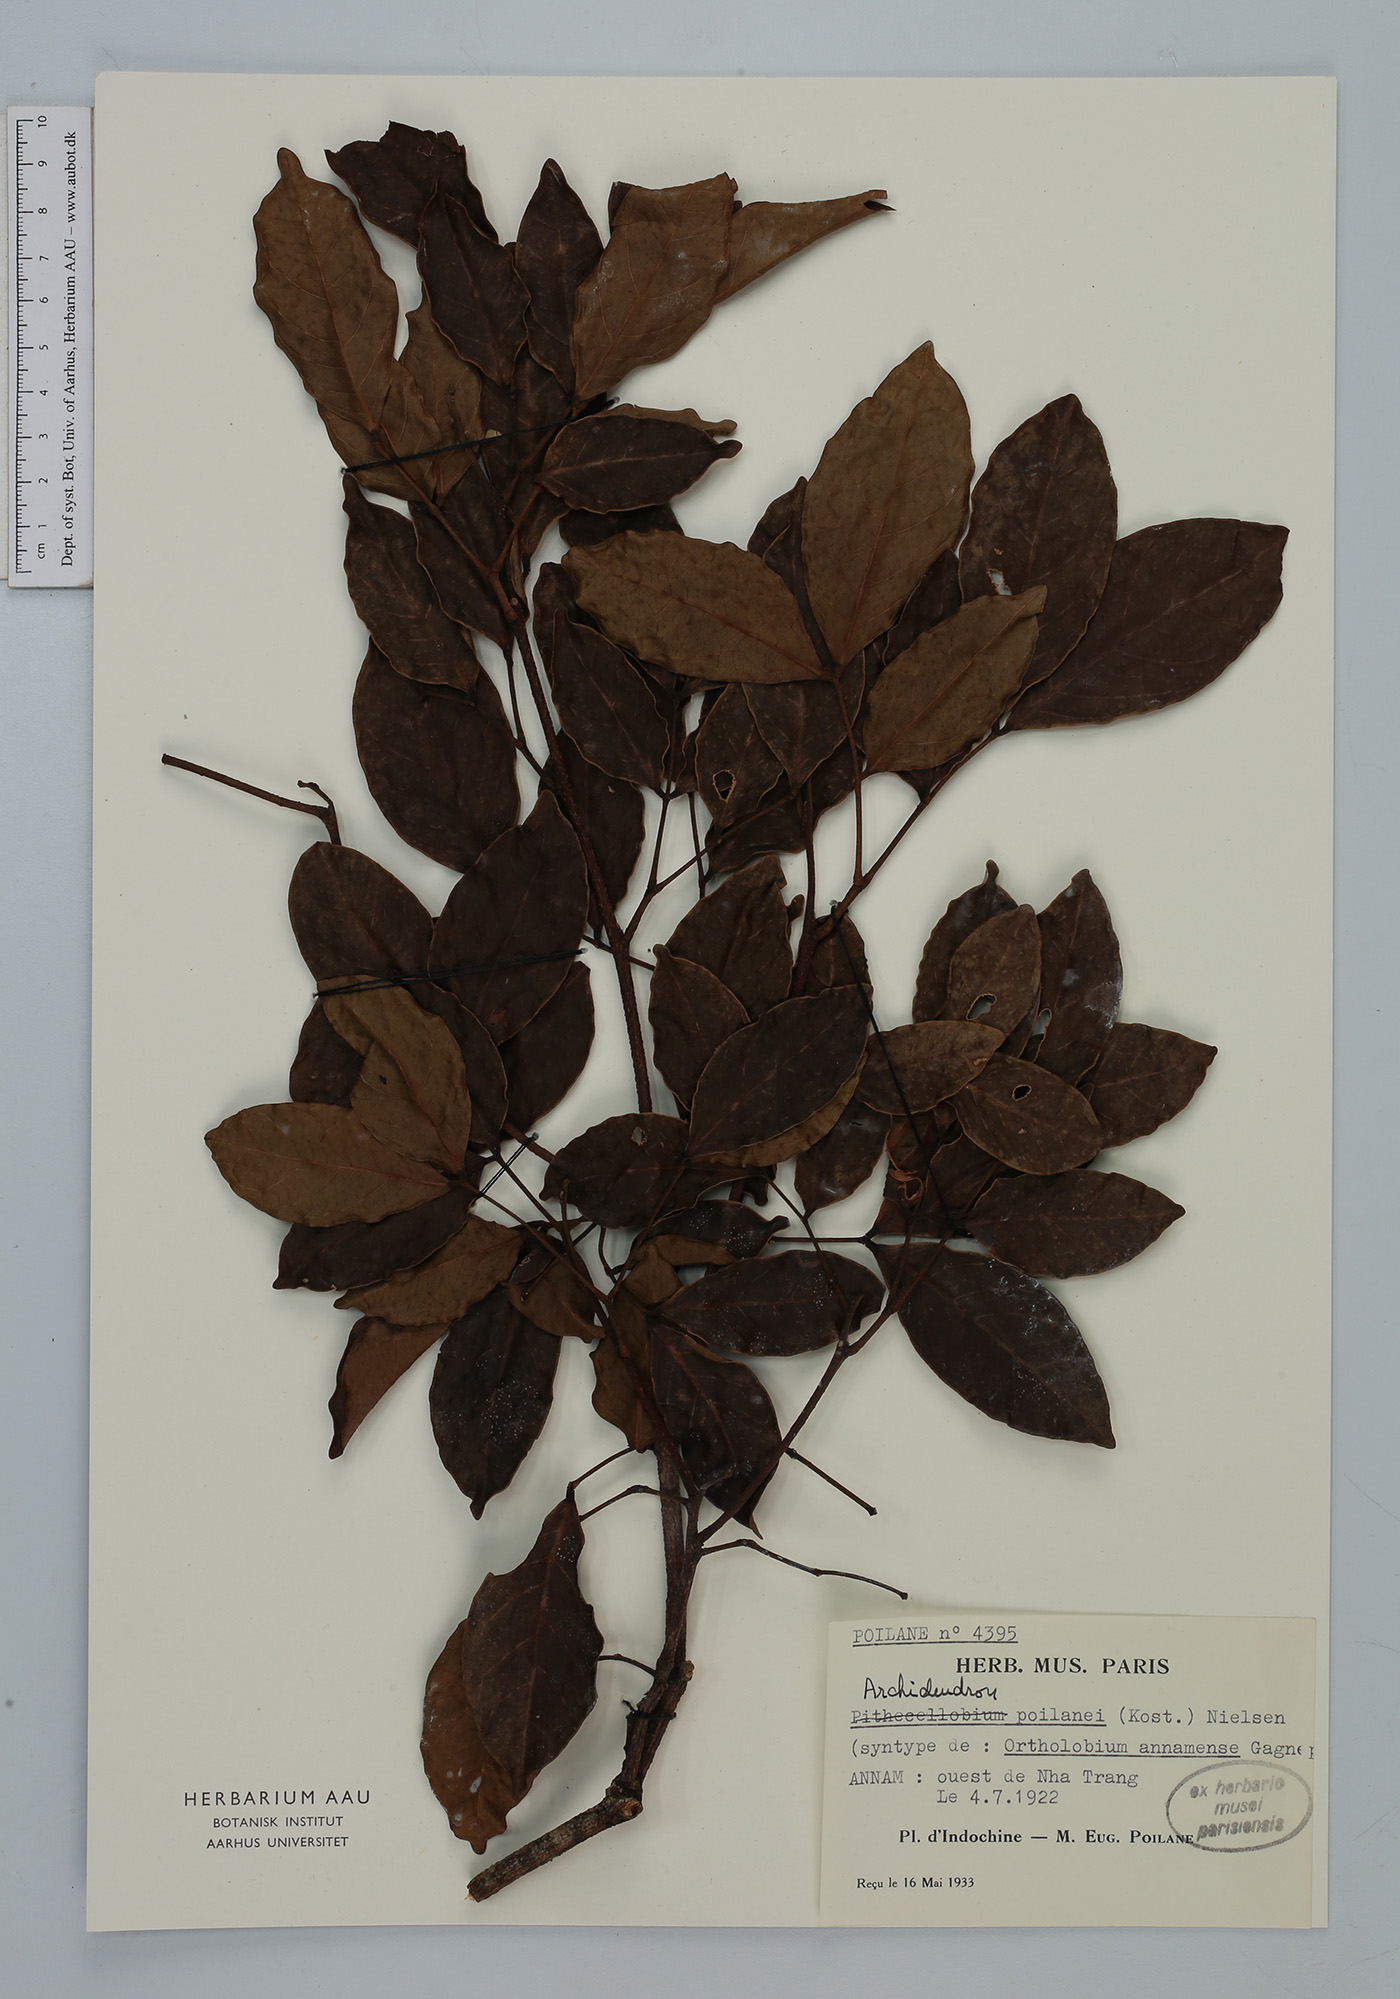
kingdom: Plantae
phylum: Tracheophyta
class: Magnoliopsida
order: Fabales
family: Fabaceae
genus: Archidendron
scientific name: Archidendron poilanei
